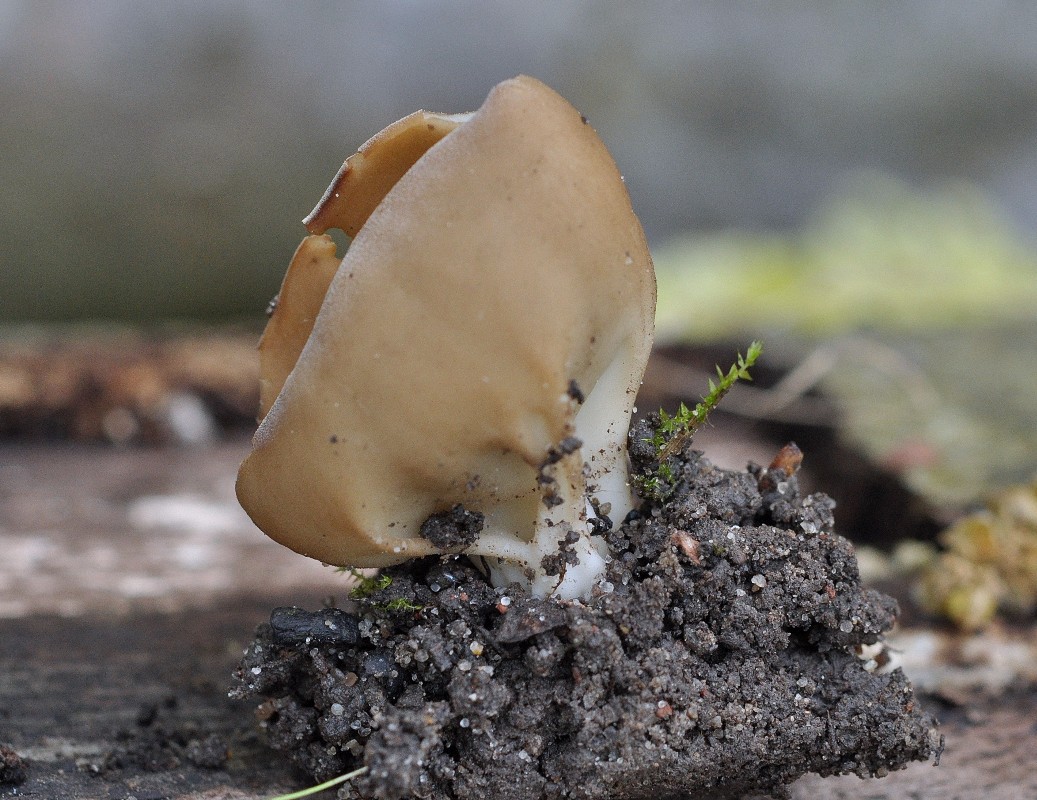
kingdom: Fungi
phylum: Ascomycota
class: Pezizomycetes
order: Pezizales
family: Helvellaceae
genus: Helvella
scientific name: Helvella acetabulum
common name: pokal-foldhat
